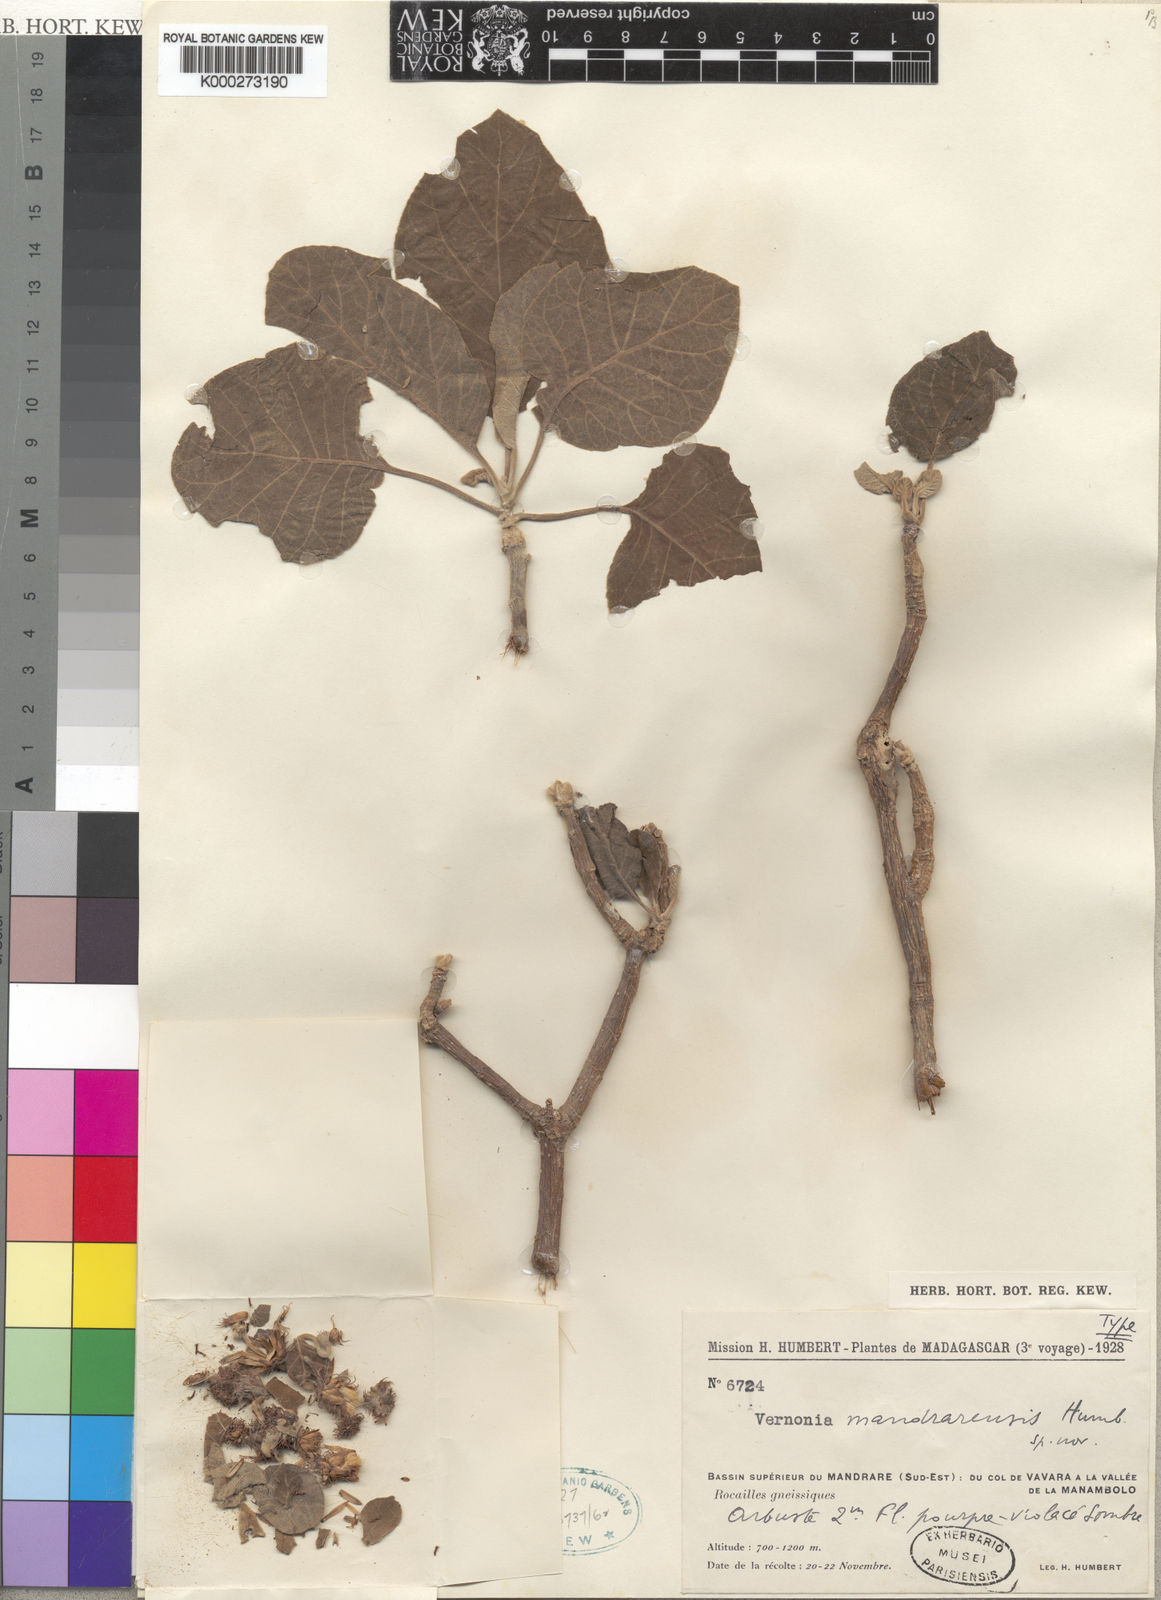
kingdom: Plantae
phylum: Tracheophyta
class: Magnoliopsida
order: Asterales
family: Asteraceae
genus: Vernonia
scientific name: Vernonia mandrarensis
